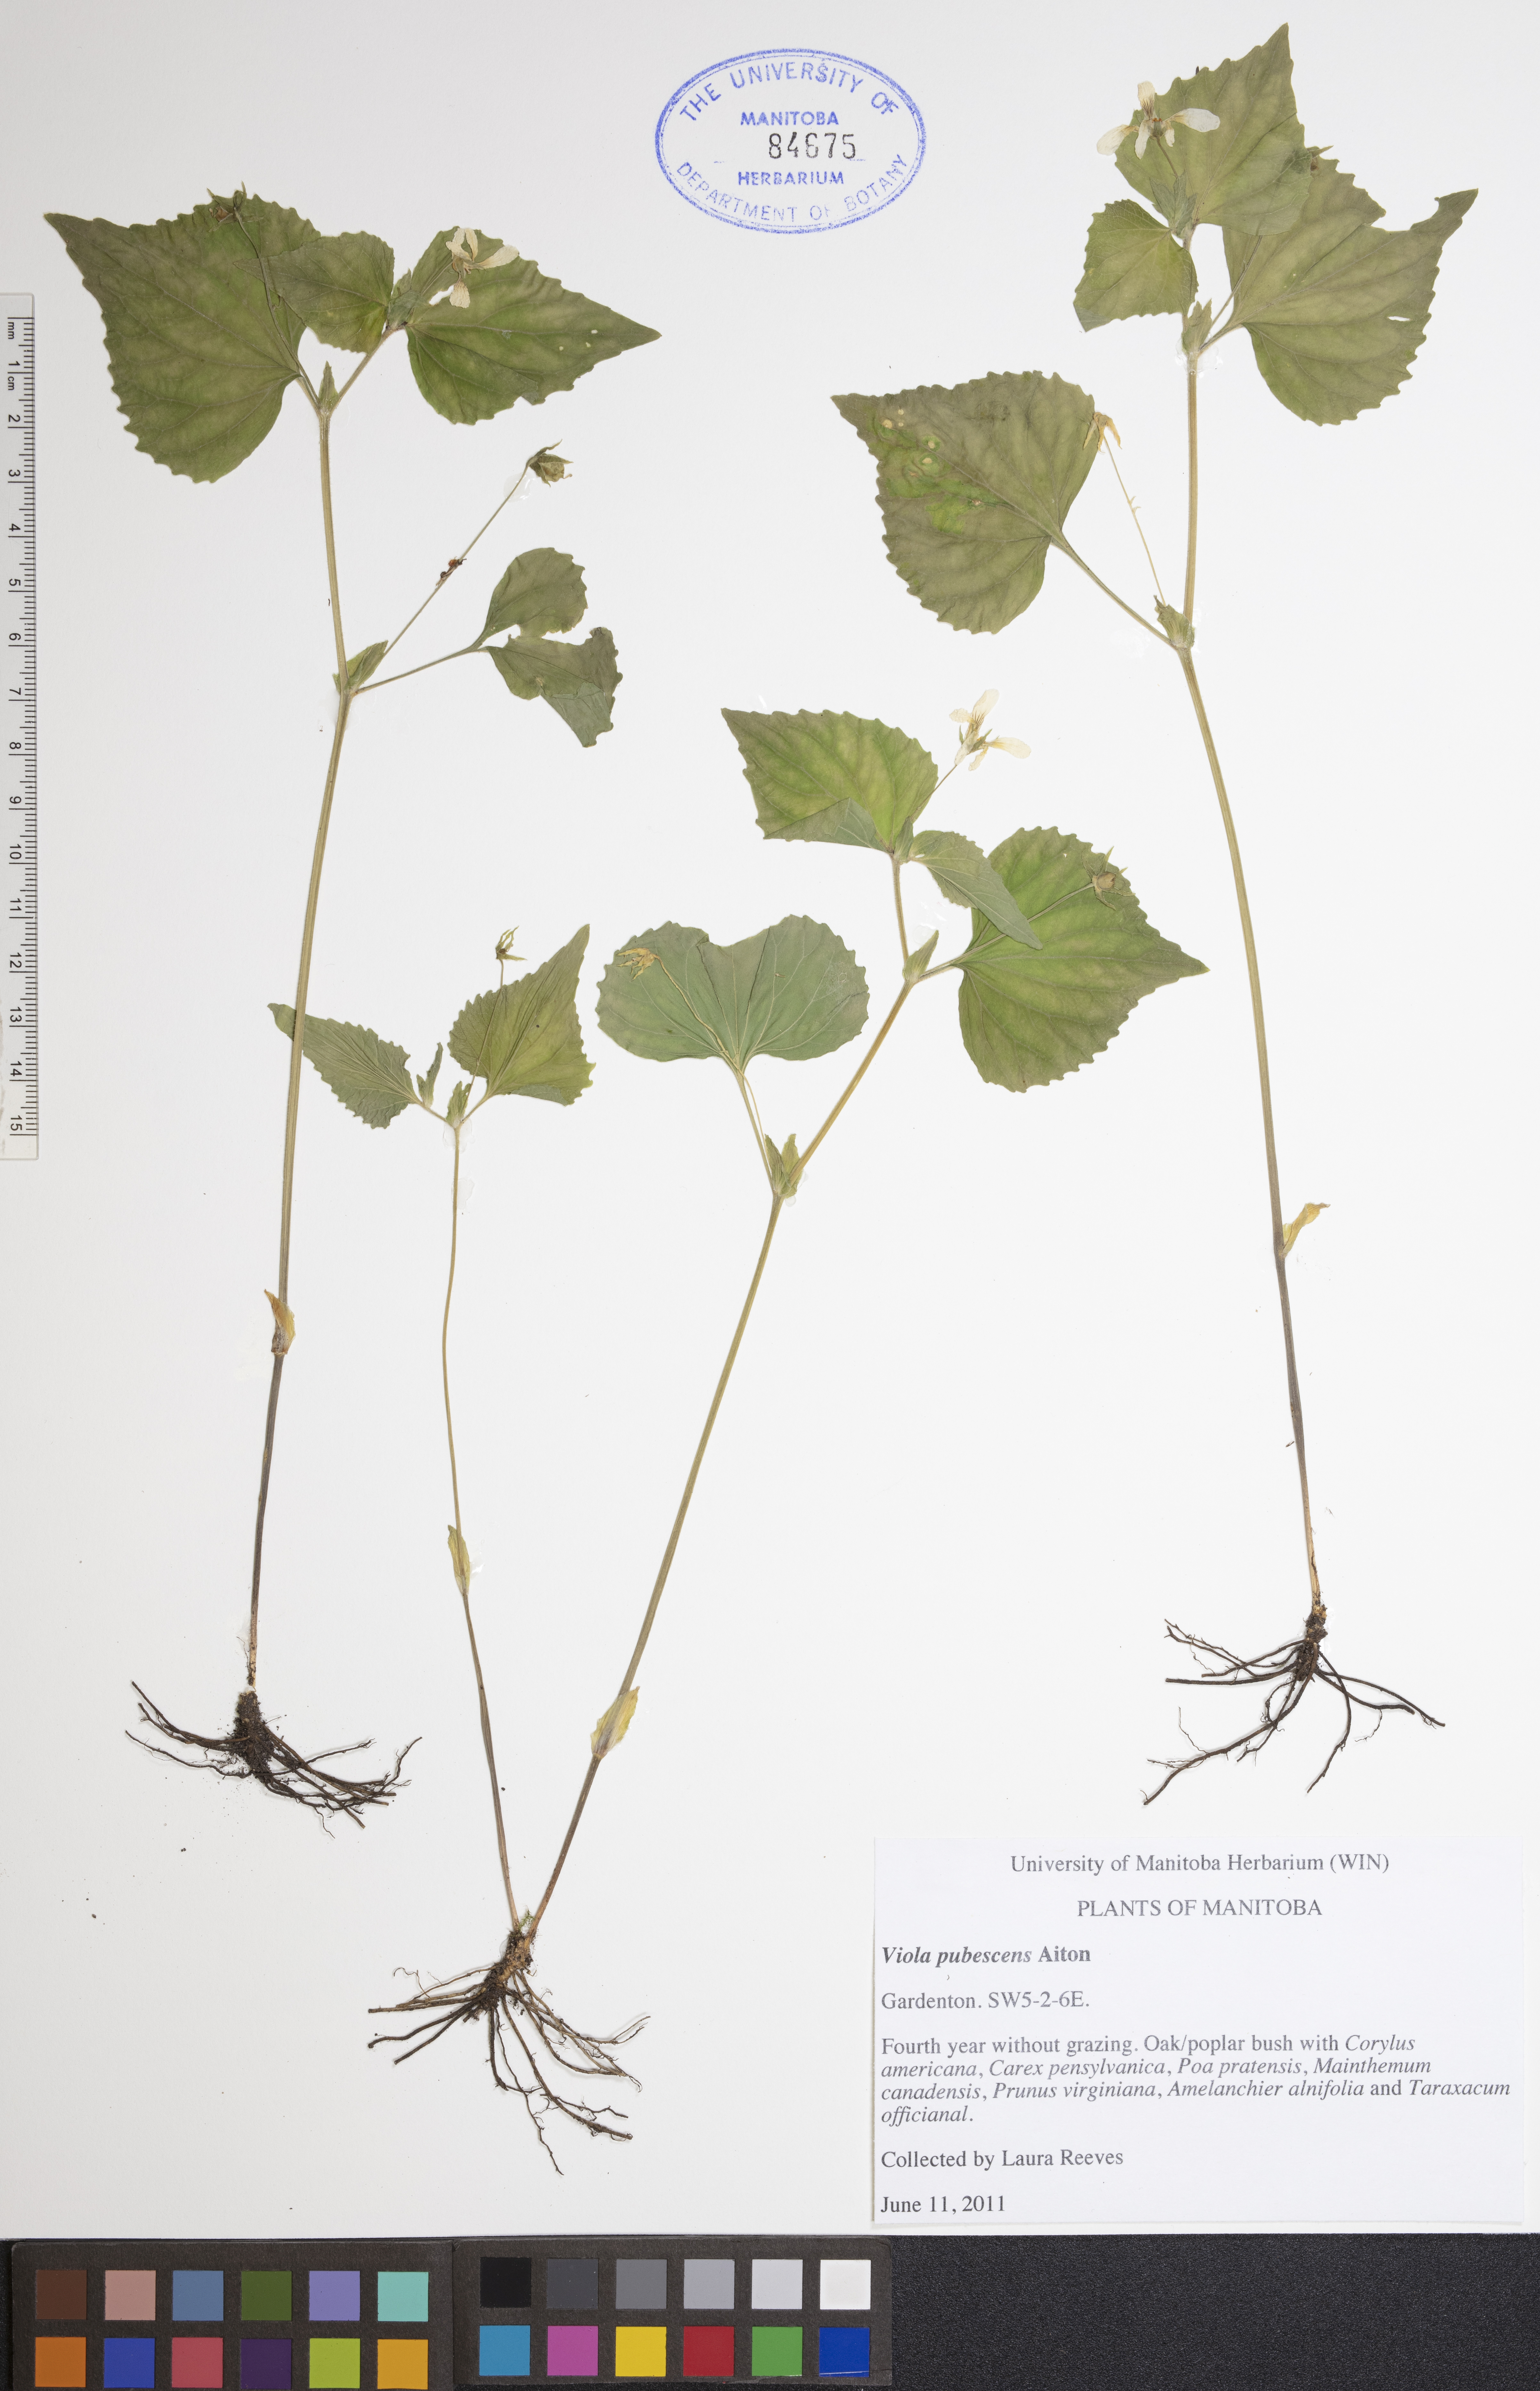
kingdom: Plantae
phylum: Tracheophyta
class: Magnoliopsida
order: Malpighiales
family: Violaceae
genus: Viola
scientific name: Viola pubescens
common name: Yellow forest violet
